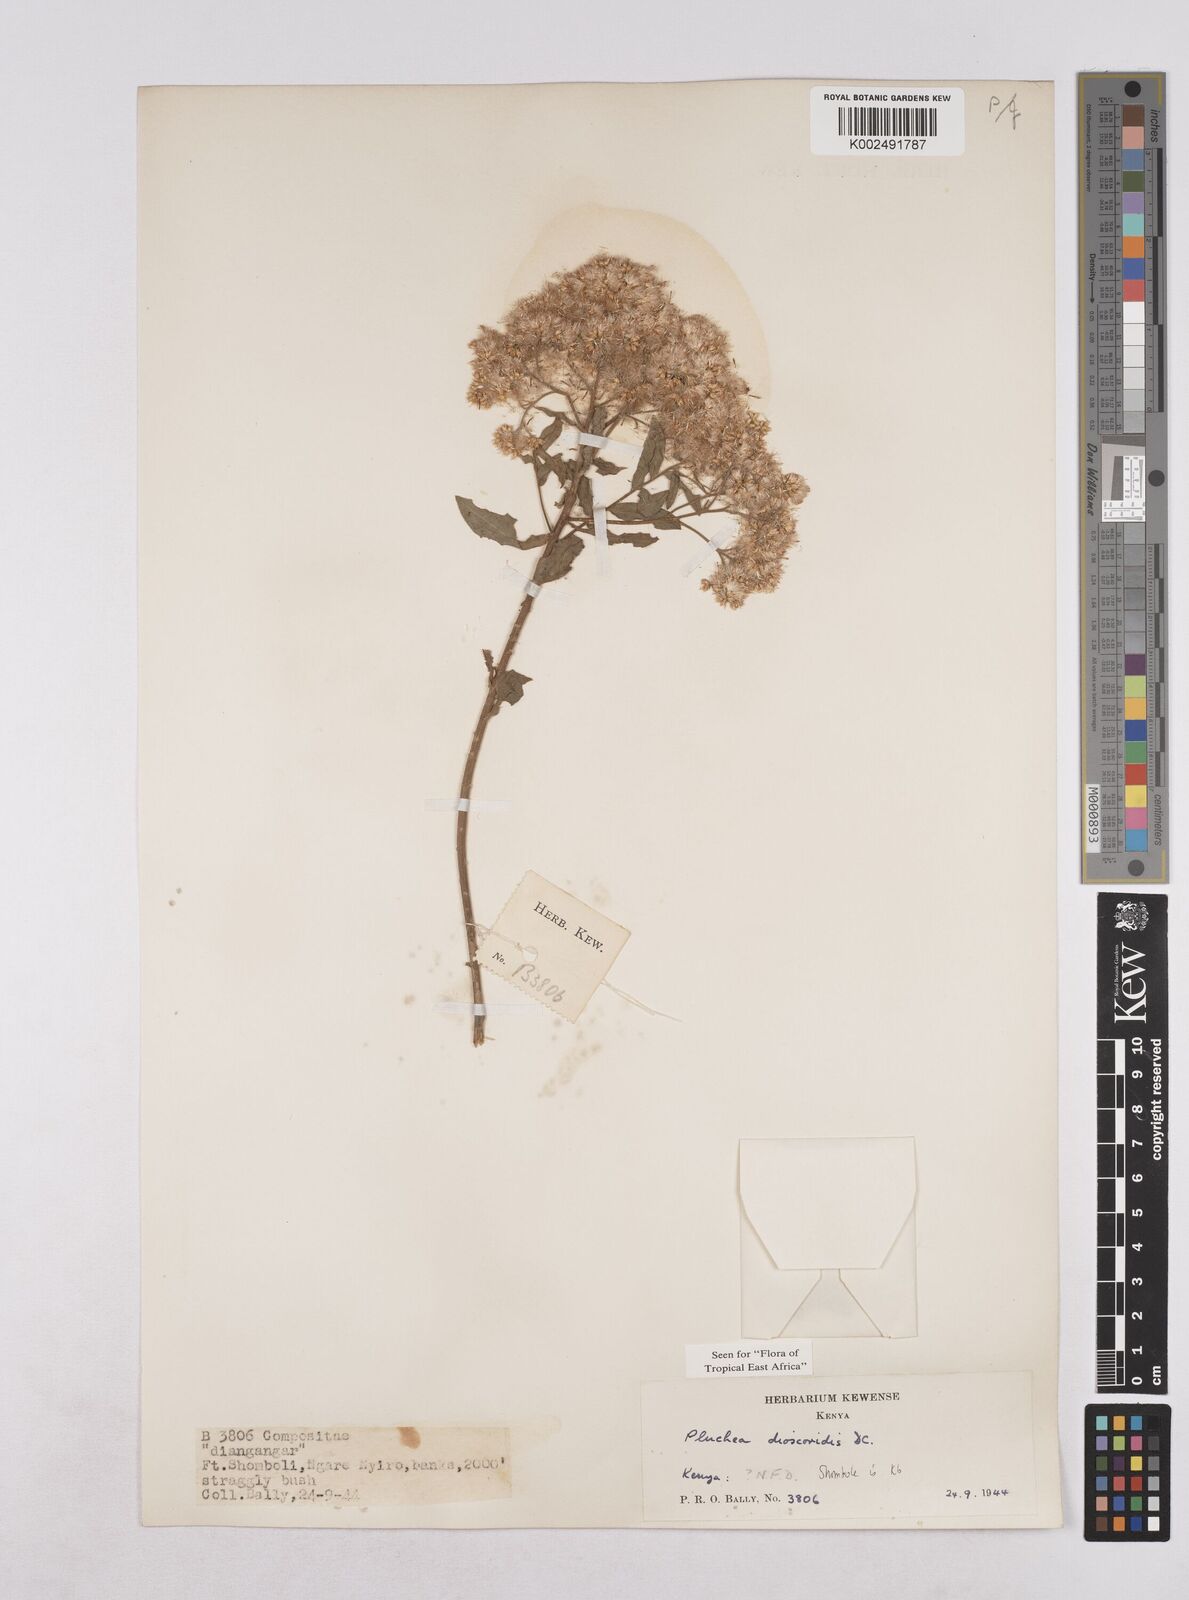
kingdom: Plantae
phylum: Tracheophyta
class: Magnoliopsida
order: Asterales
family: Asteraceae
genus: Pluchea
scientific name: Pluchea dioscoridis
